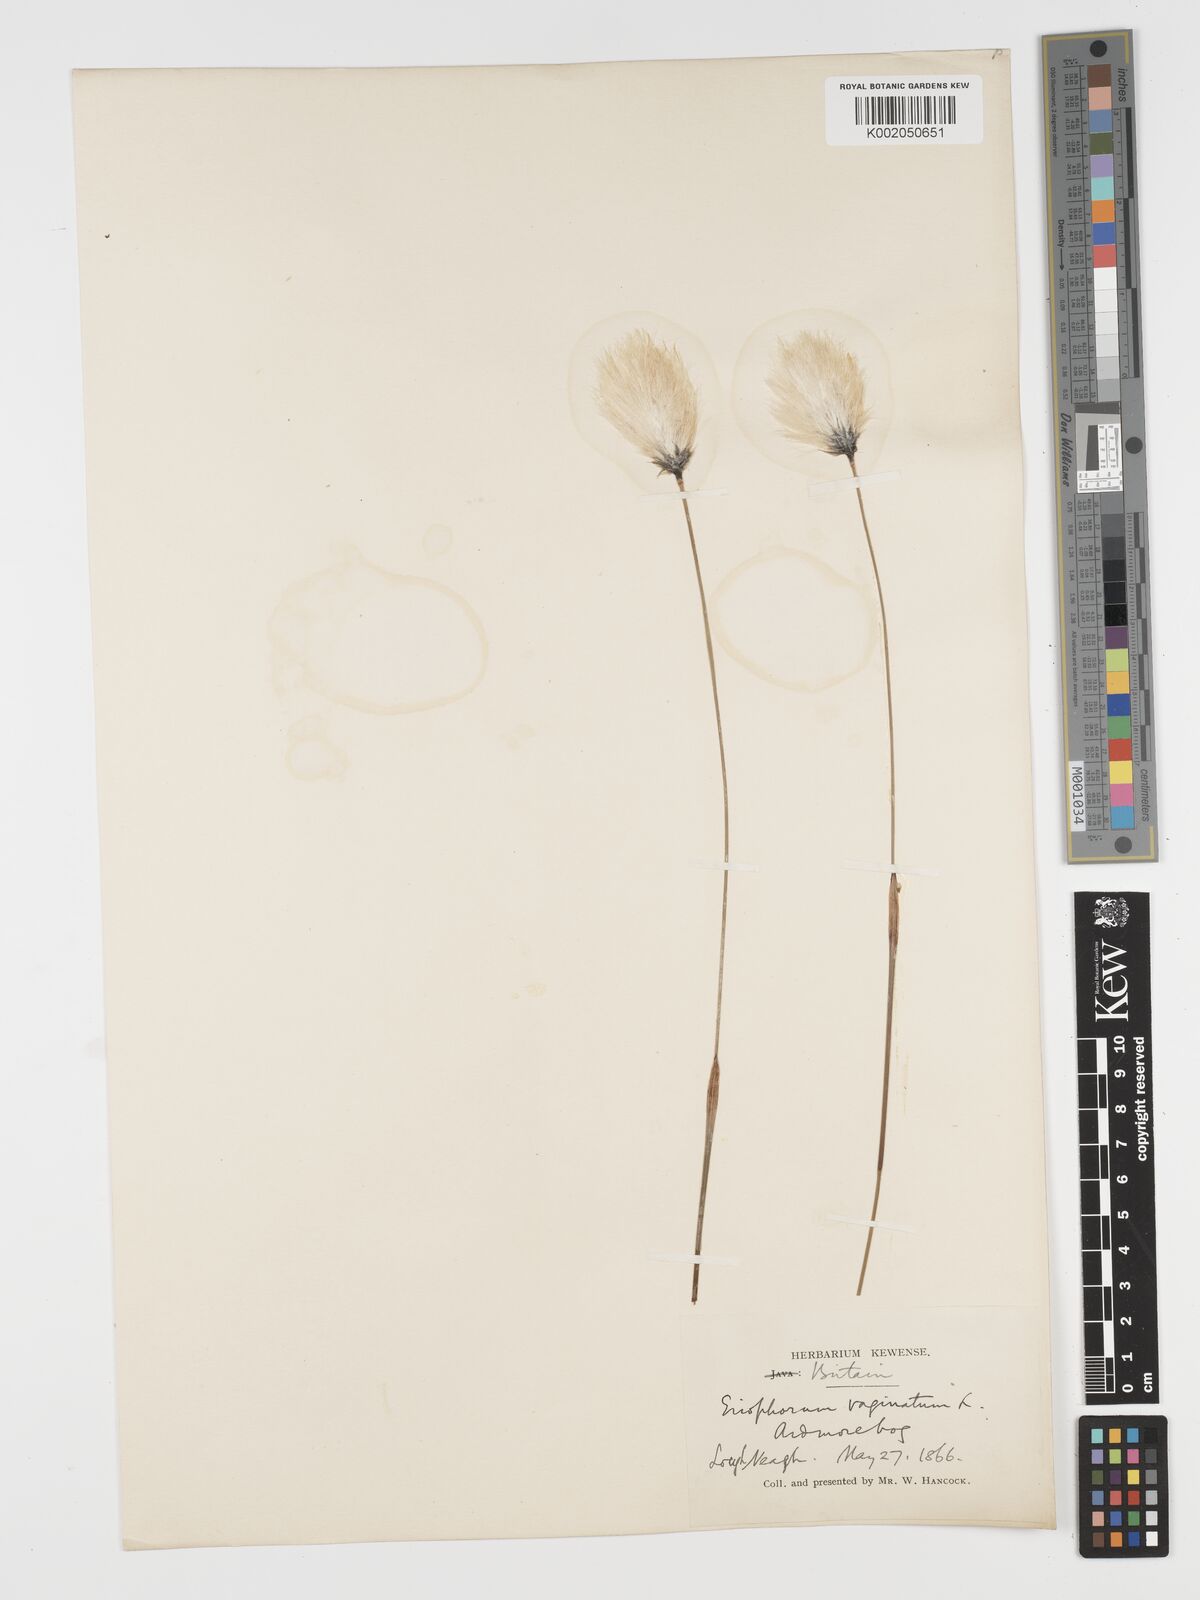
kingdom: Plantae
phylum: Tracheophyta
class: Liliopsida
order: Poales
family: Cyperaceae
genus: Eriophorum
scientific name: Eriophorum vaginatum
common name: Hare's-tail cottongrass
